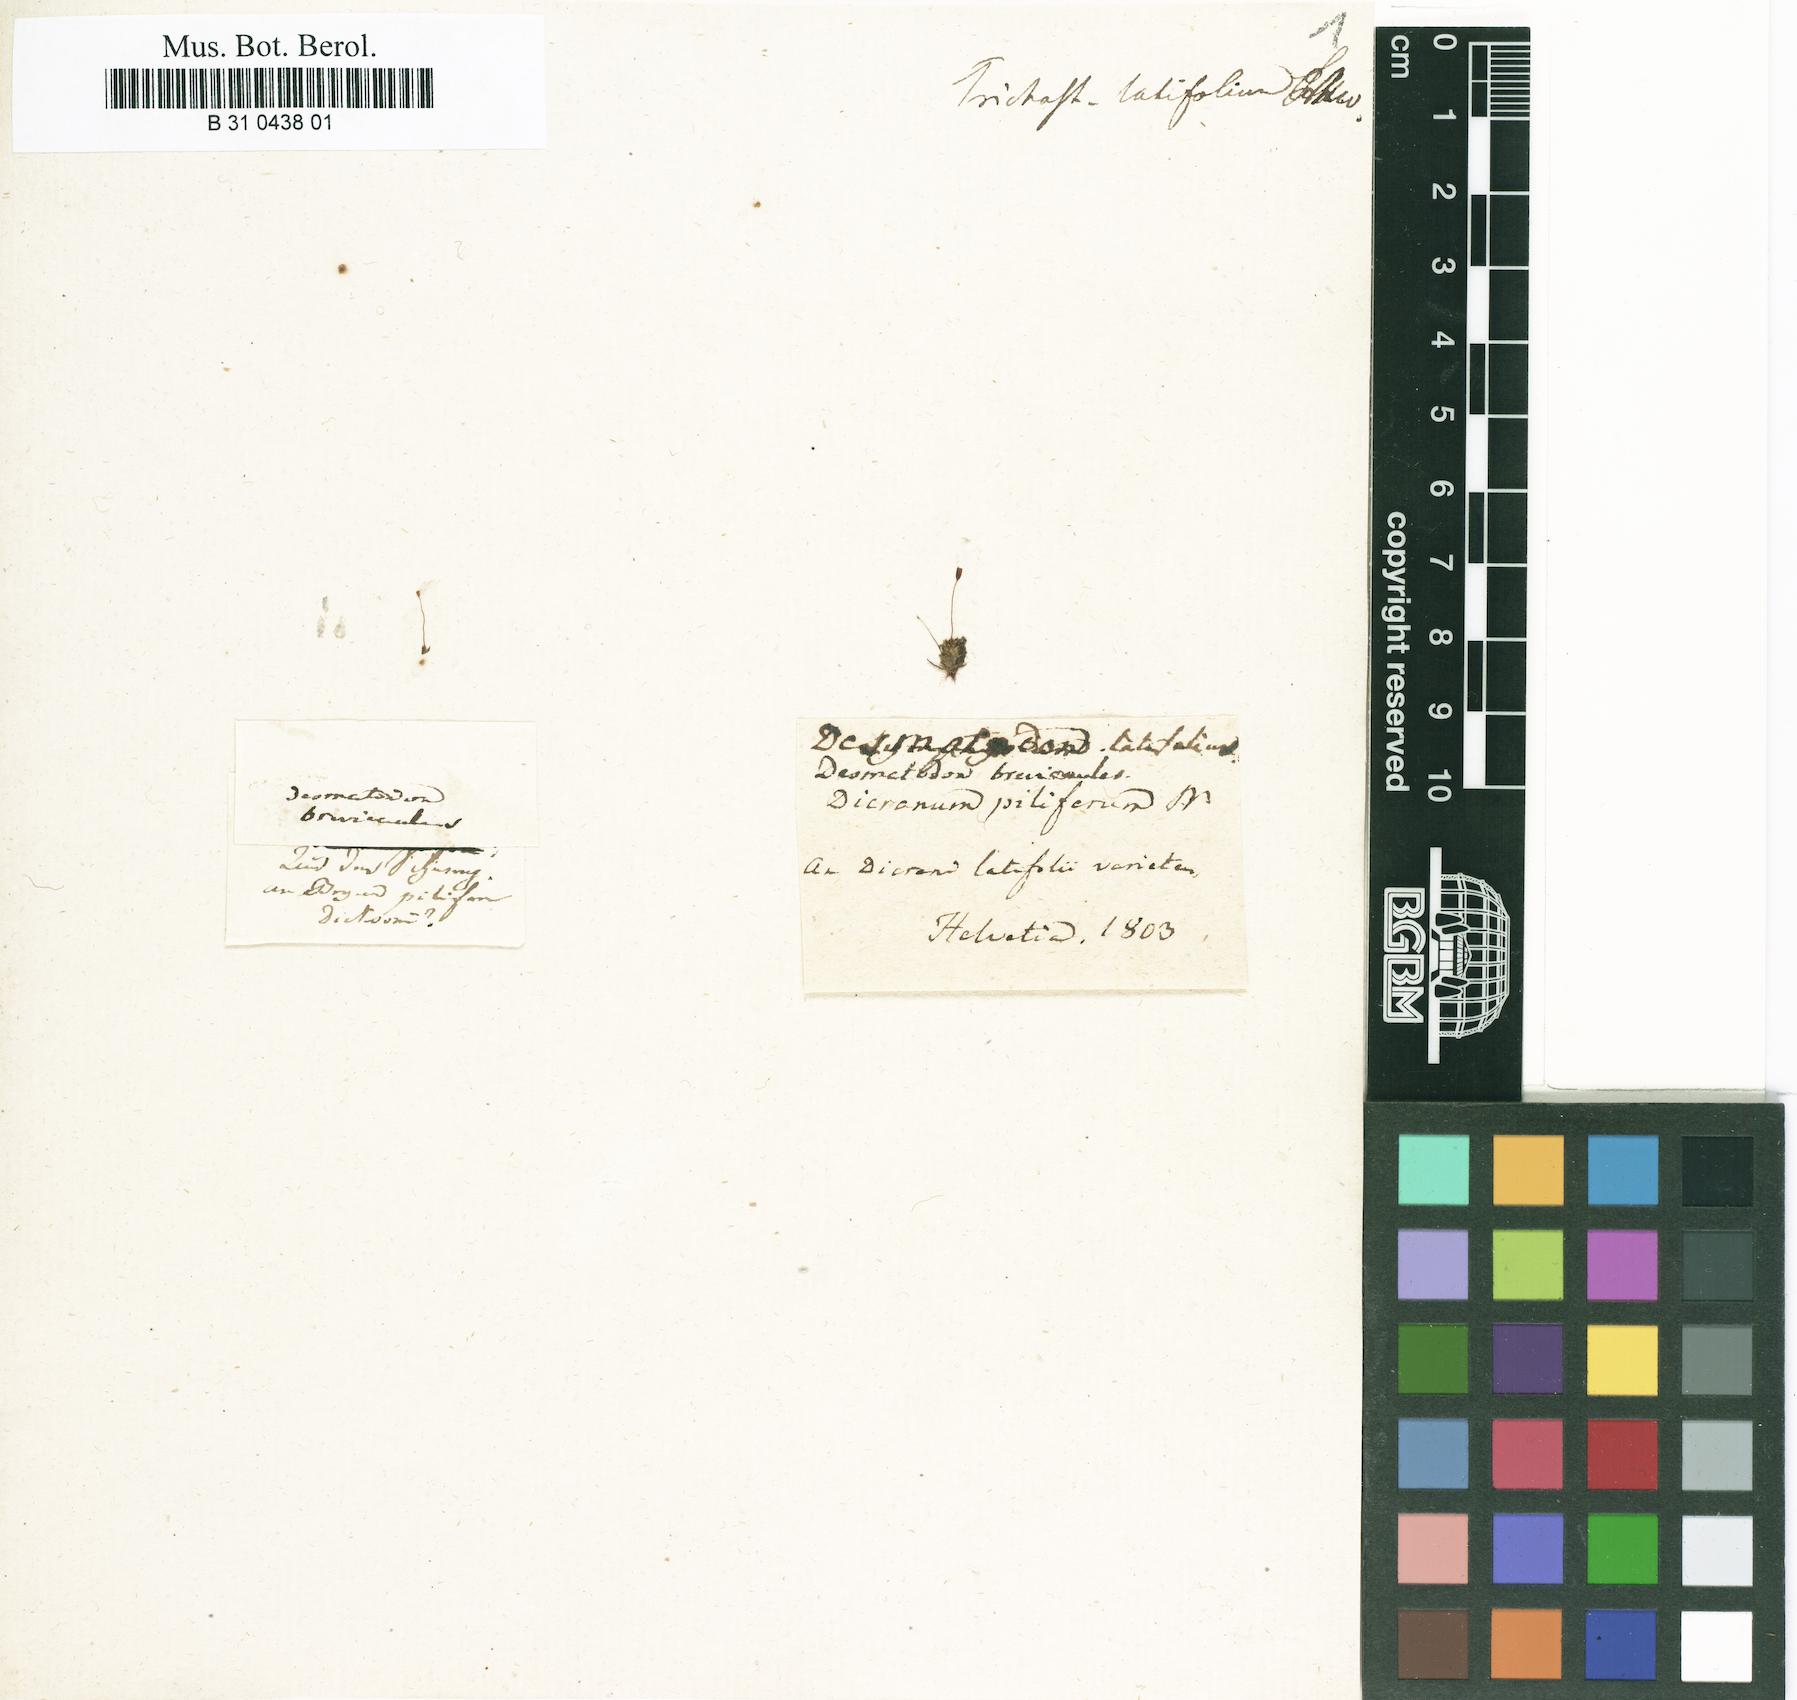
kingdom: Plantae
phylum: Bryophyta
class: Bryopsida
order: Pottiales
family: Pottiaceae
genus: Tortula
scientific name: Tortula hoppeana
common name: Hoppe's screw moss
